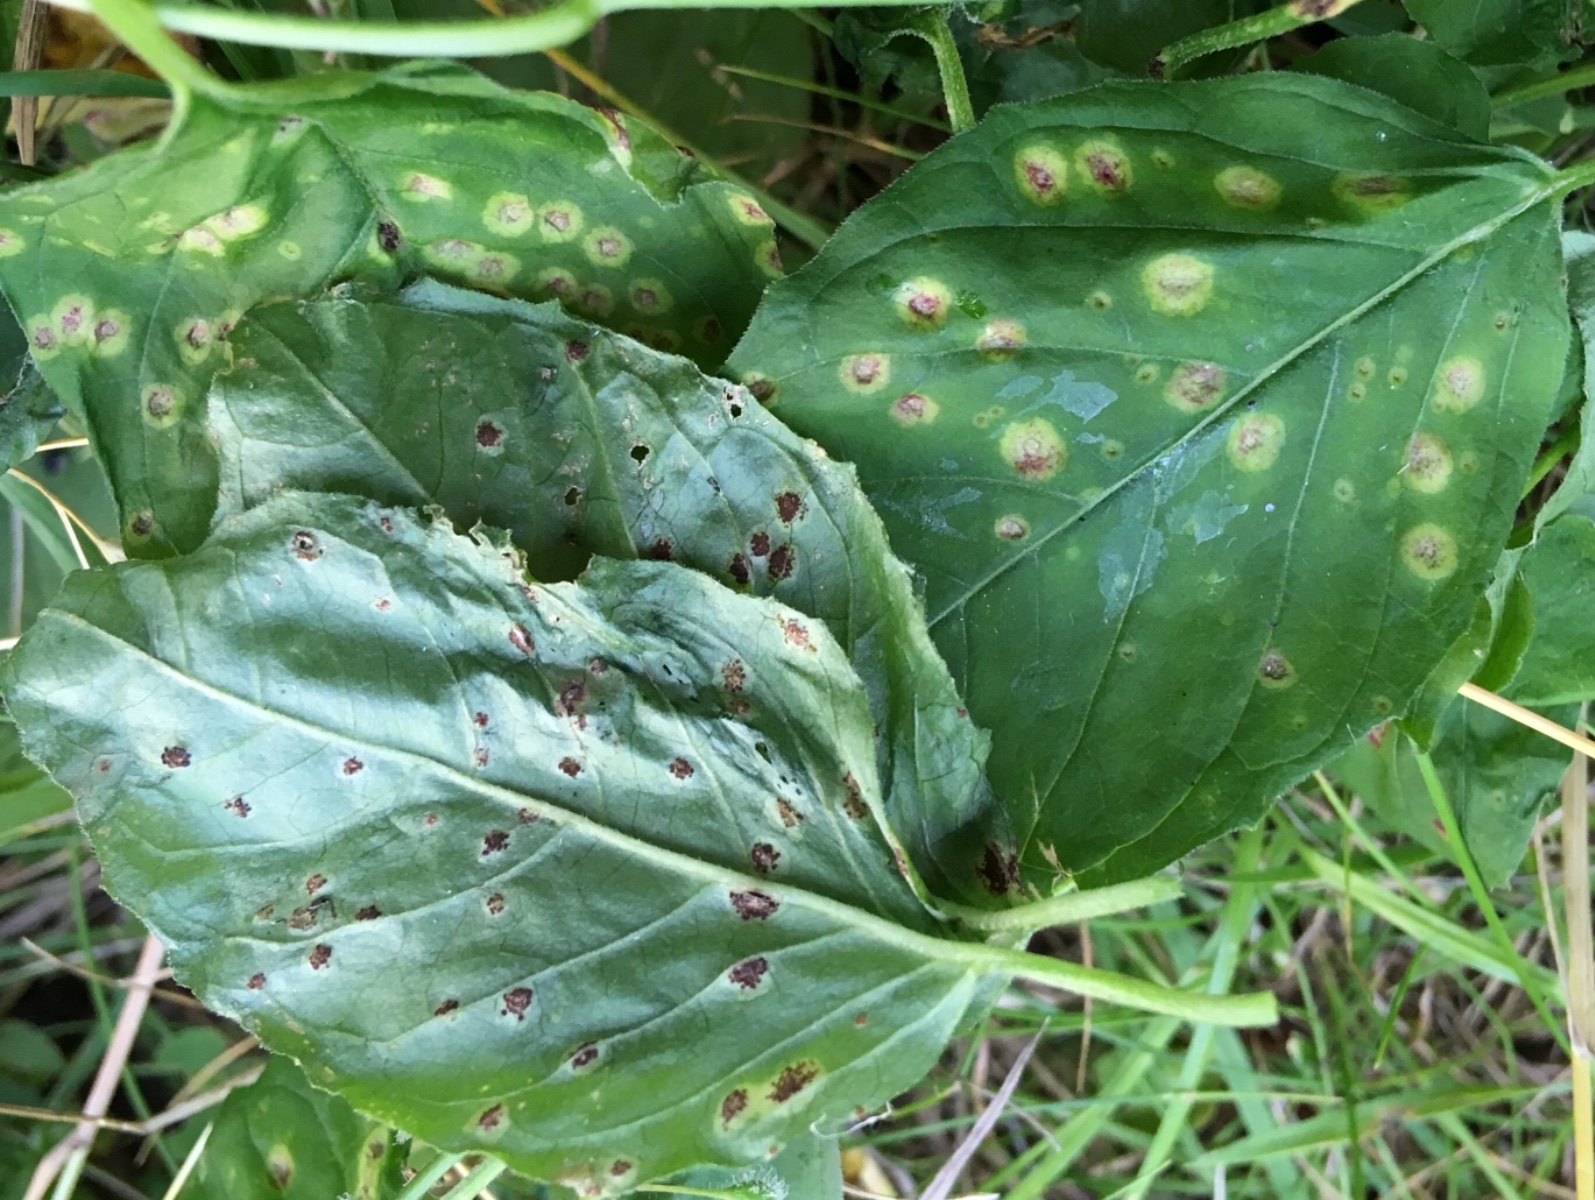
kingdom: Fungi
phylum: Basidiomycota
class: Pucciniomycetes
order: Pucciniales
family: Pucciniaceae
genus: Puccinia
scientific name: Puccinia circaeae
